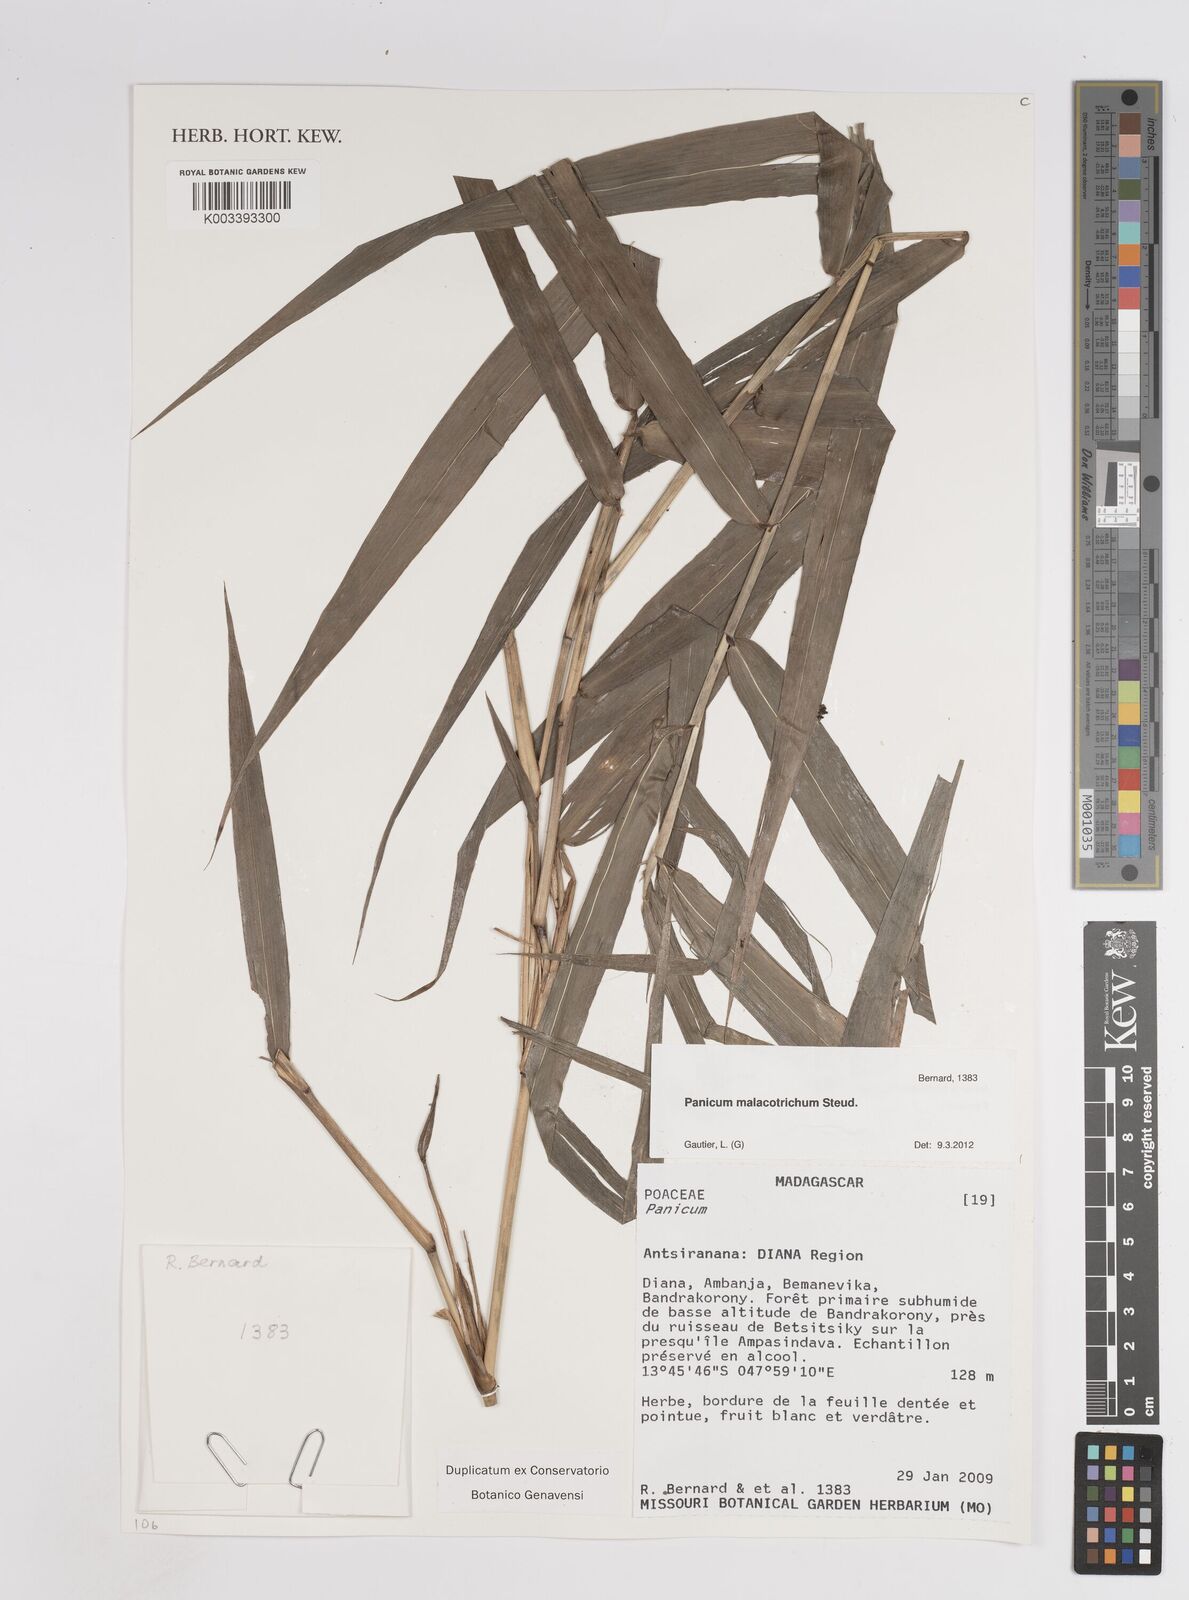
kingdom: Plantae
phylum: Tracheophyta
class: Liliopsida
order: Poales
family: Poaceae
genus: Panicum
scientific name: Panicum malacotrichum
